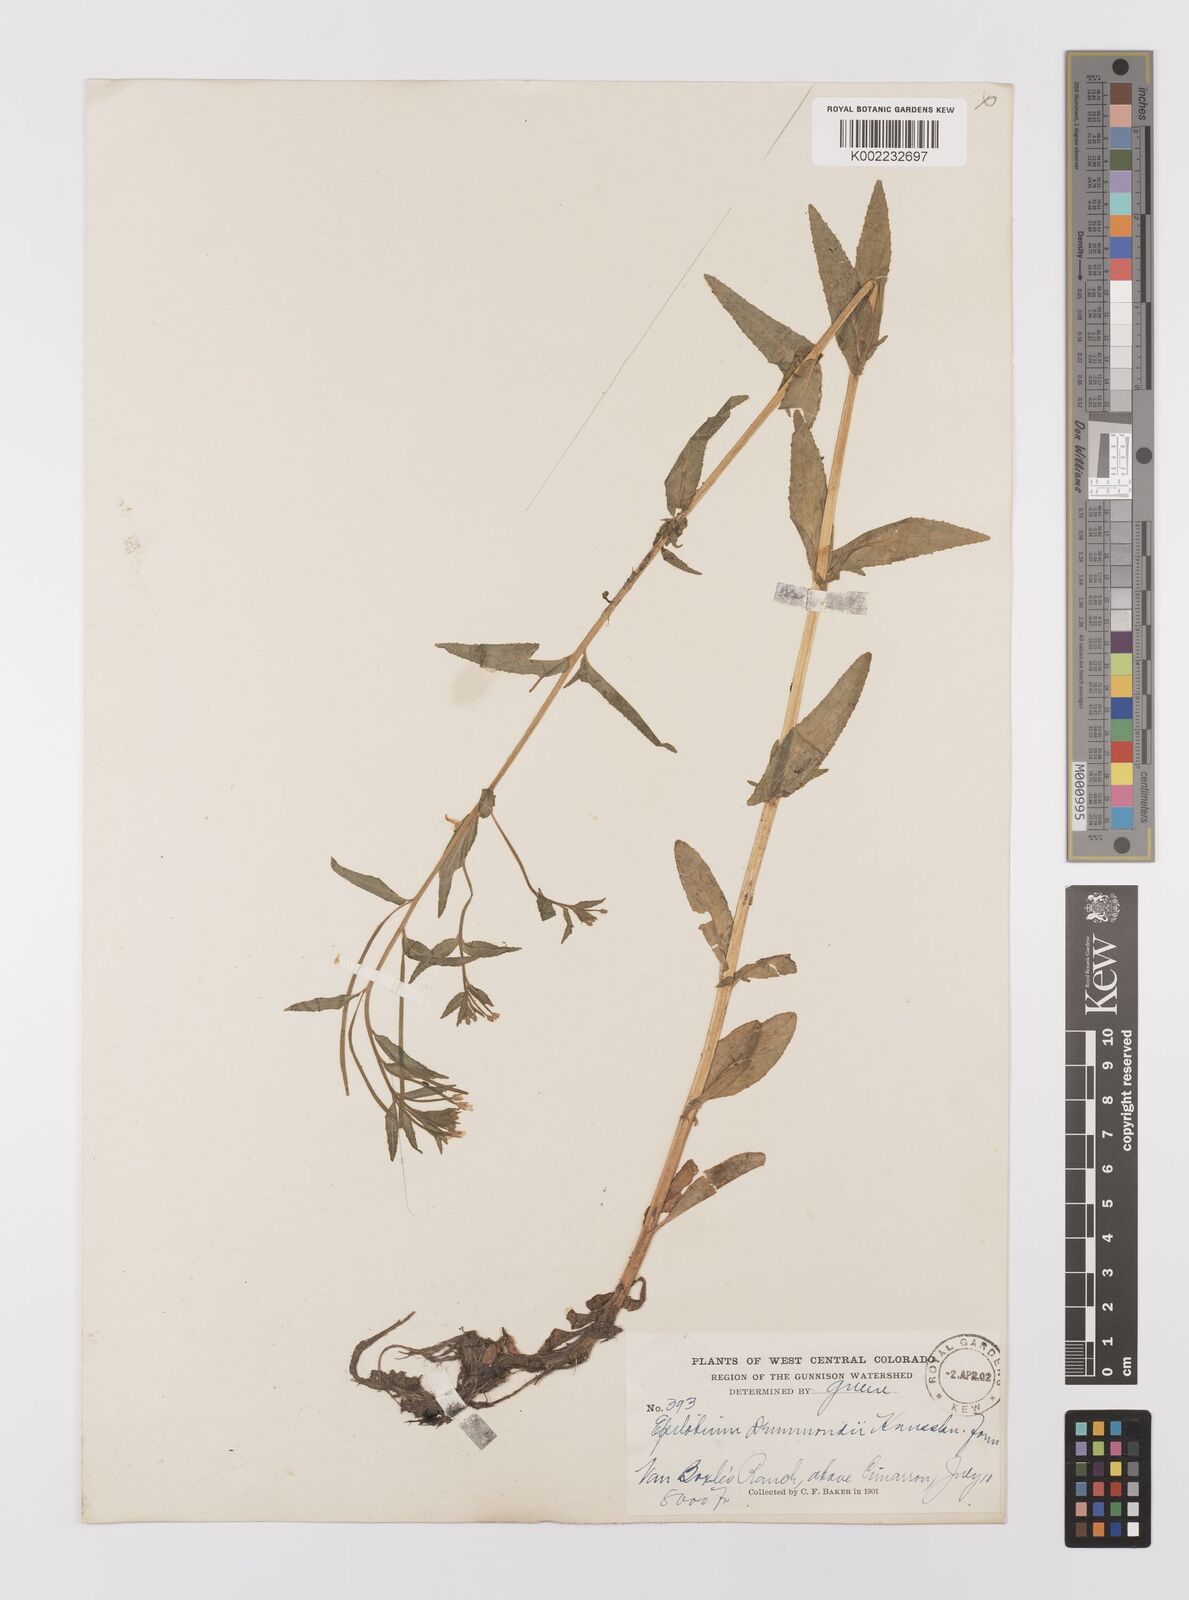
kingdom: Plantae
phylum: Tracheophyta
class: Magnoliopsida
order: Myrtales
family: Onagraceae
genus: Epilobium
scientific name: Epilobium
